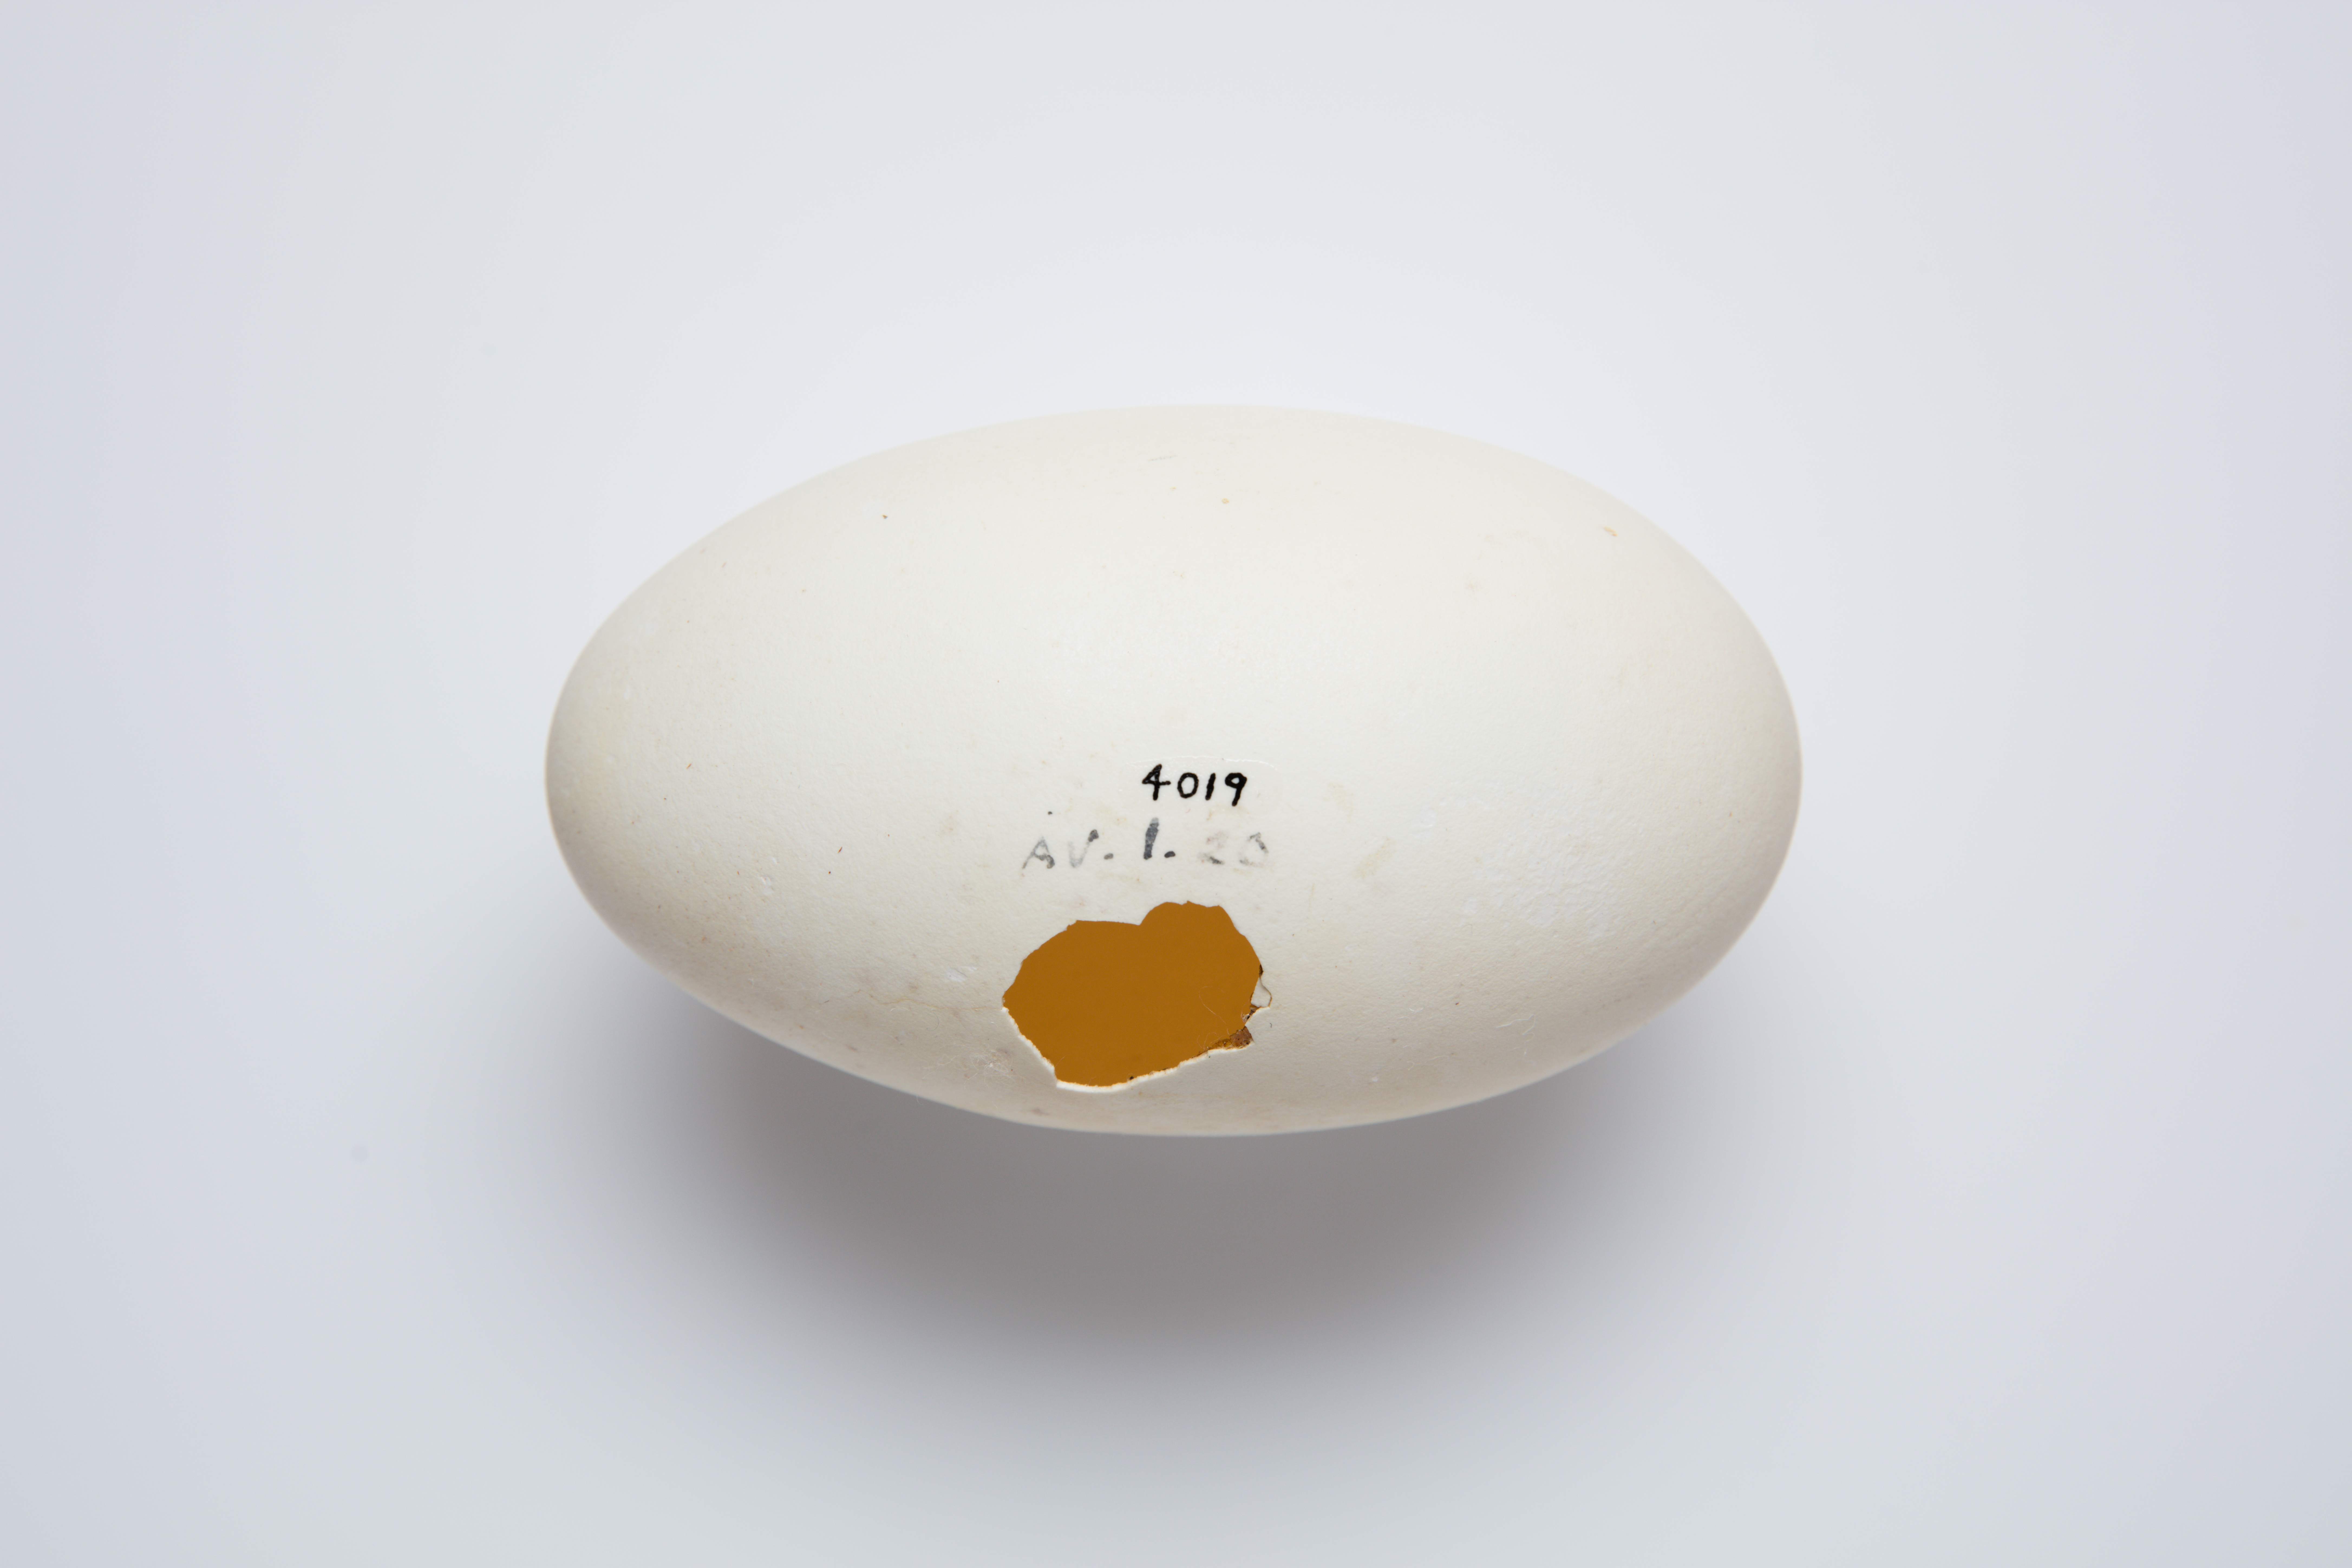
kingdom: Animalia
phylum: Chordata
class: Aves
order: Apterygiformes
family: Apterygidae
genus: Apteryx
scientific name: Apteryx owenii
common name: Little spotted kiwi
